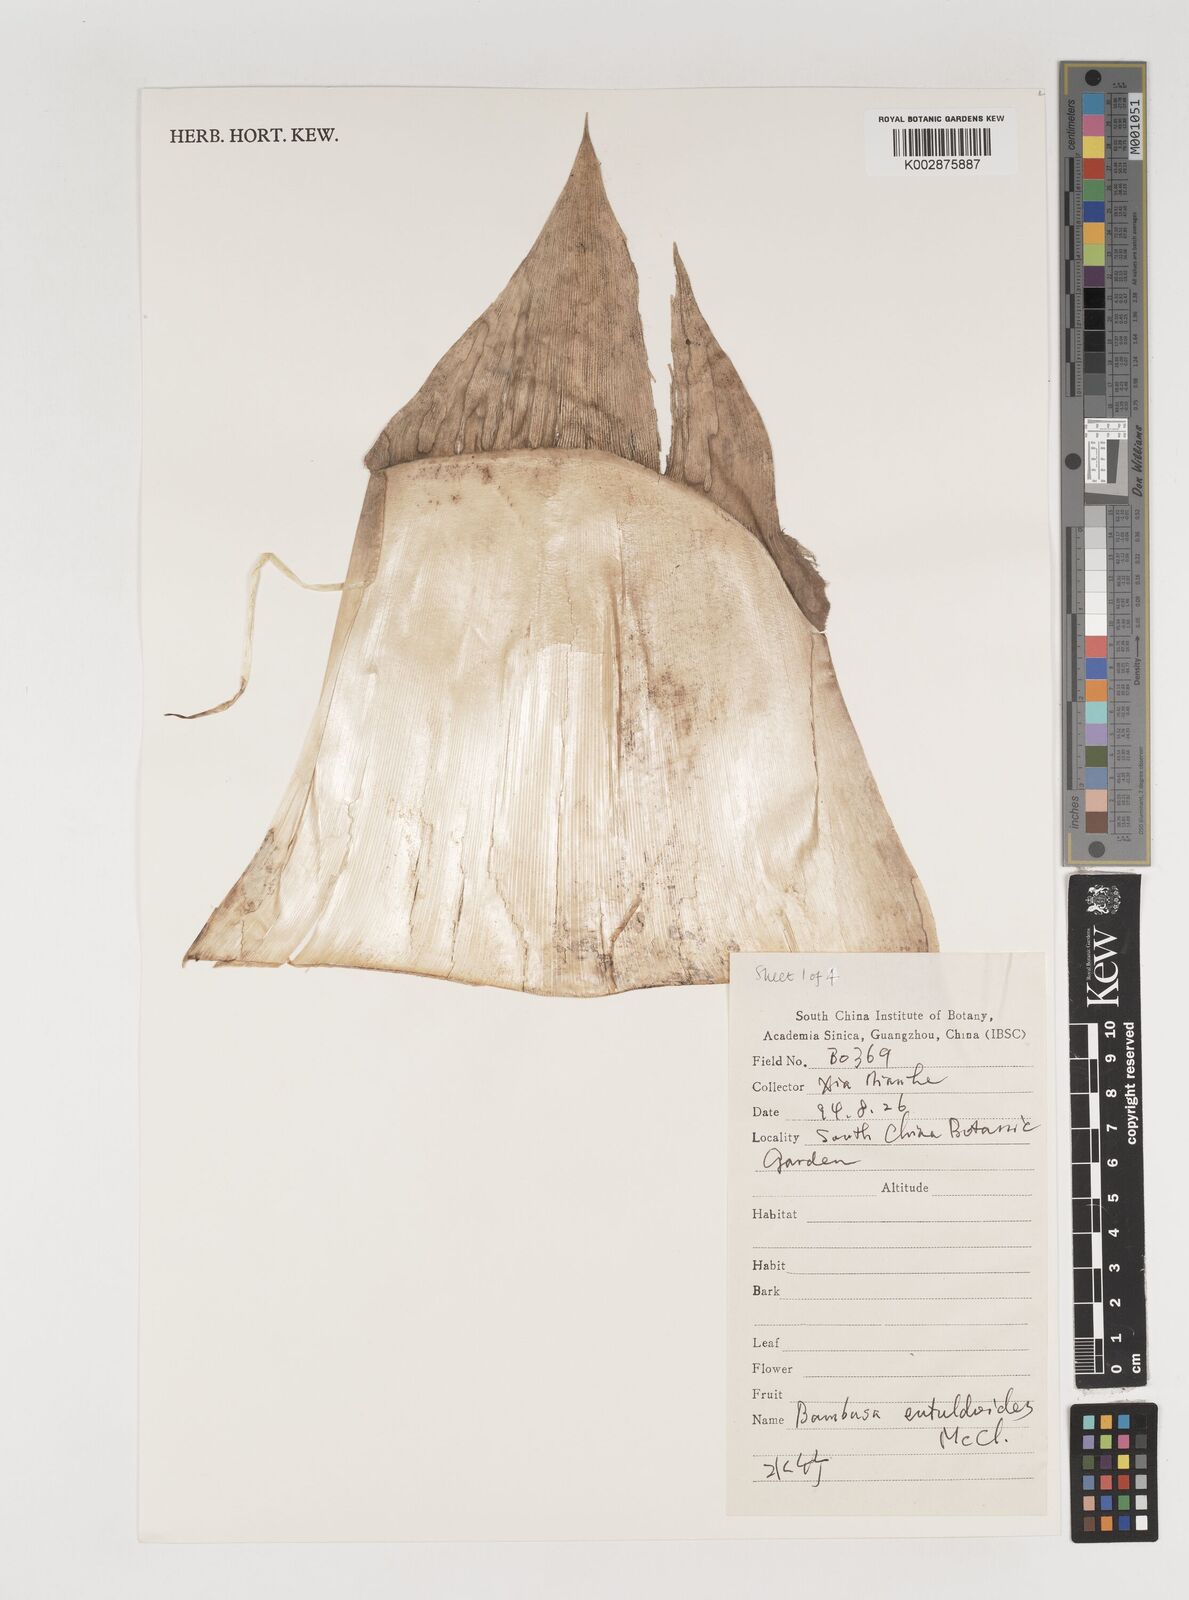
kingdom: Plantae
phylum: Tracheophyta
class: Liliopsida
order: Poales
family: Poaceae
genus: Bambusa
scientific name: Bambusa eutuldoides
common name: Dai ngan bamboo
